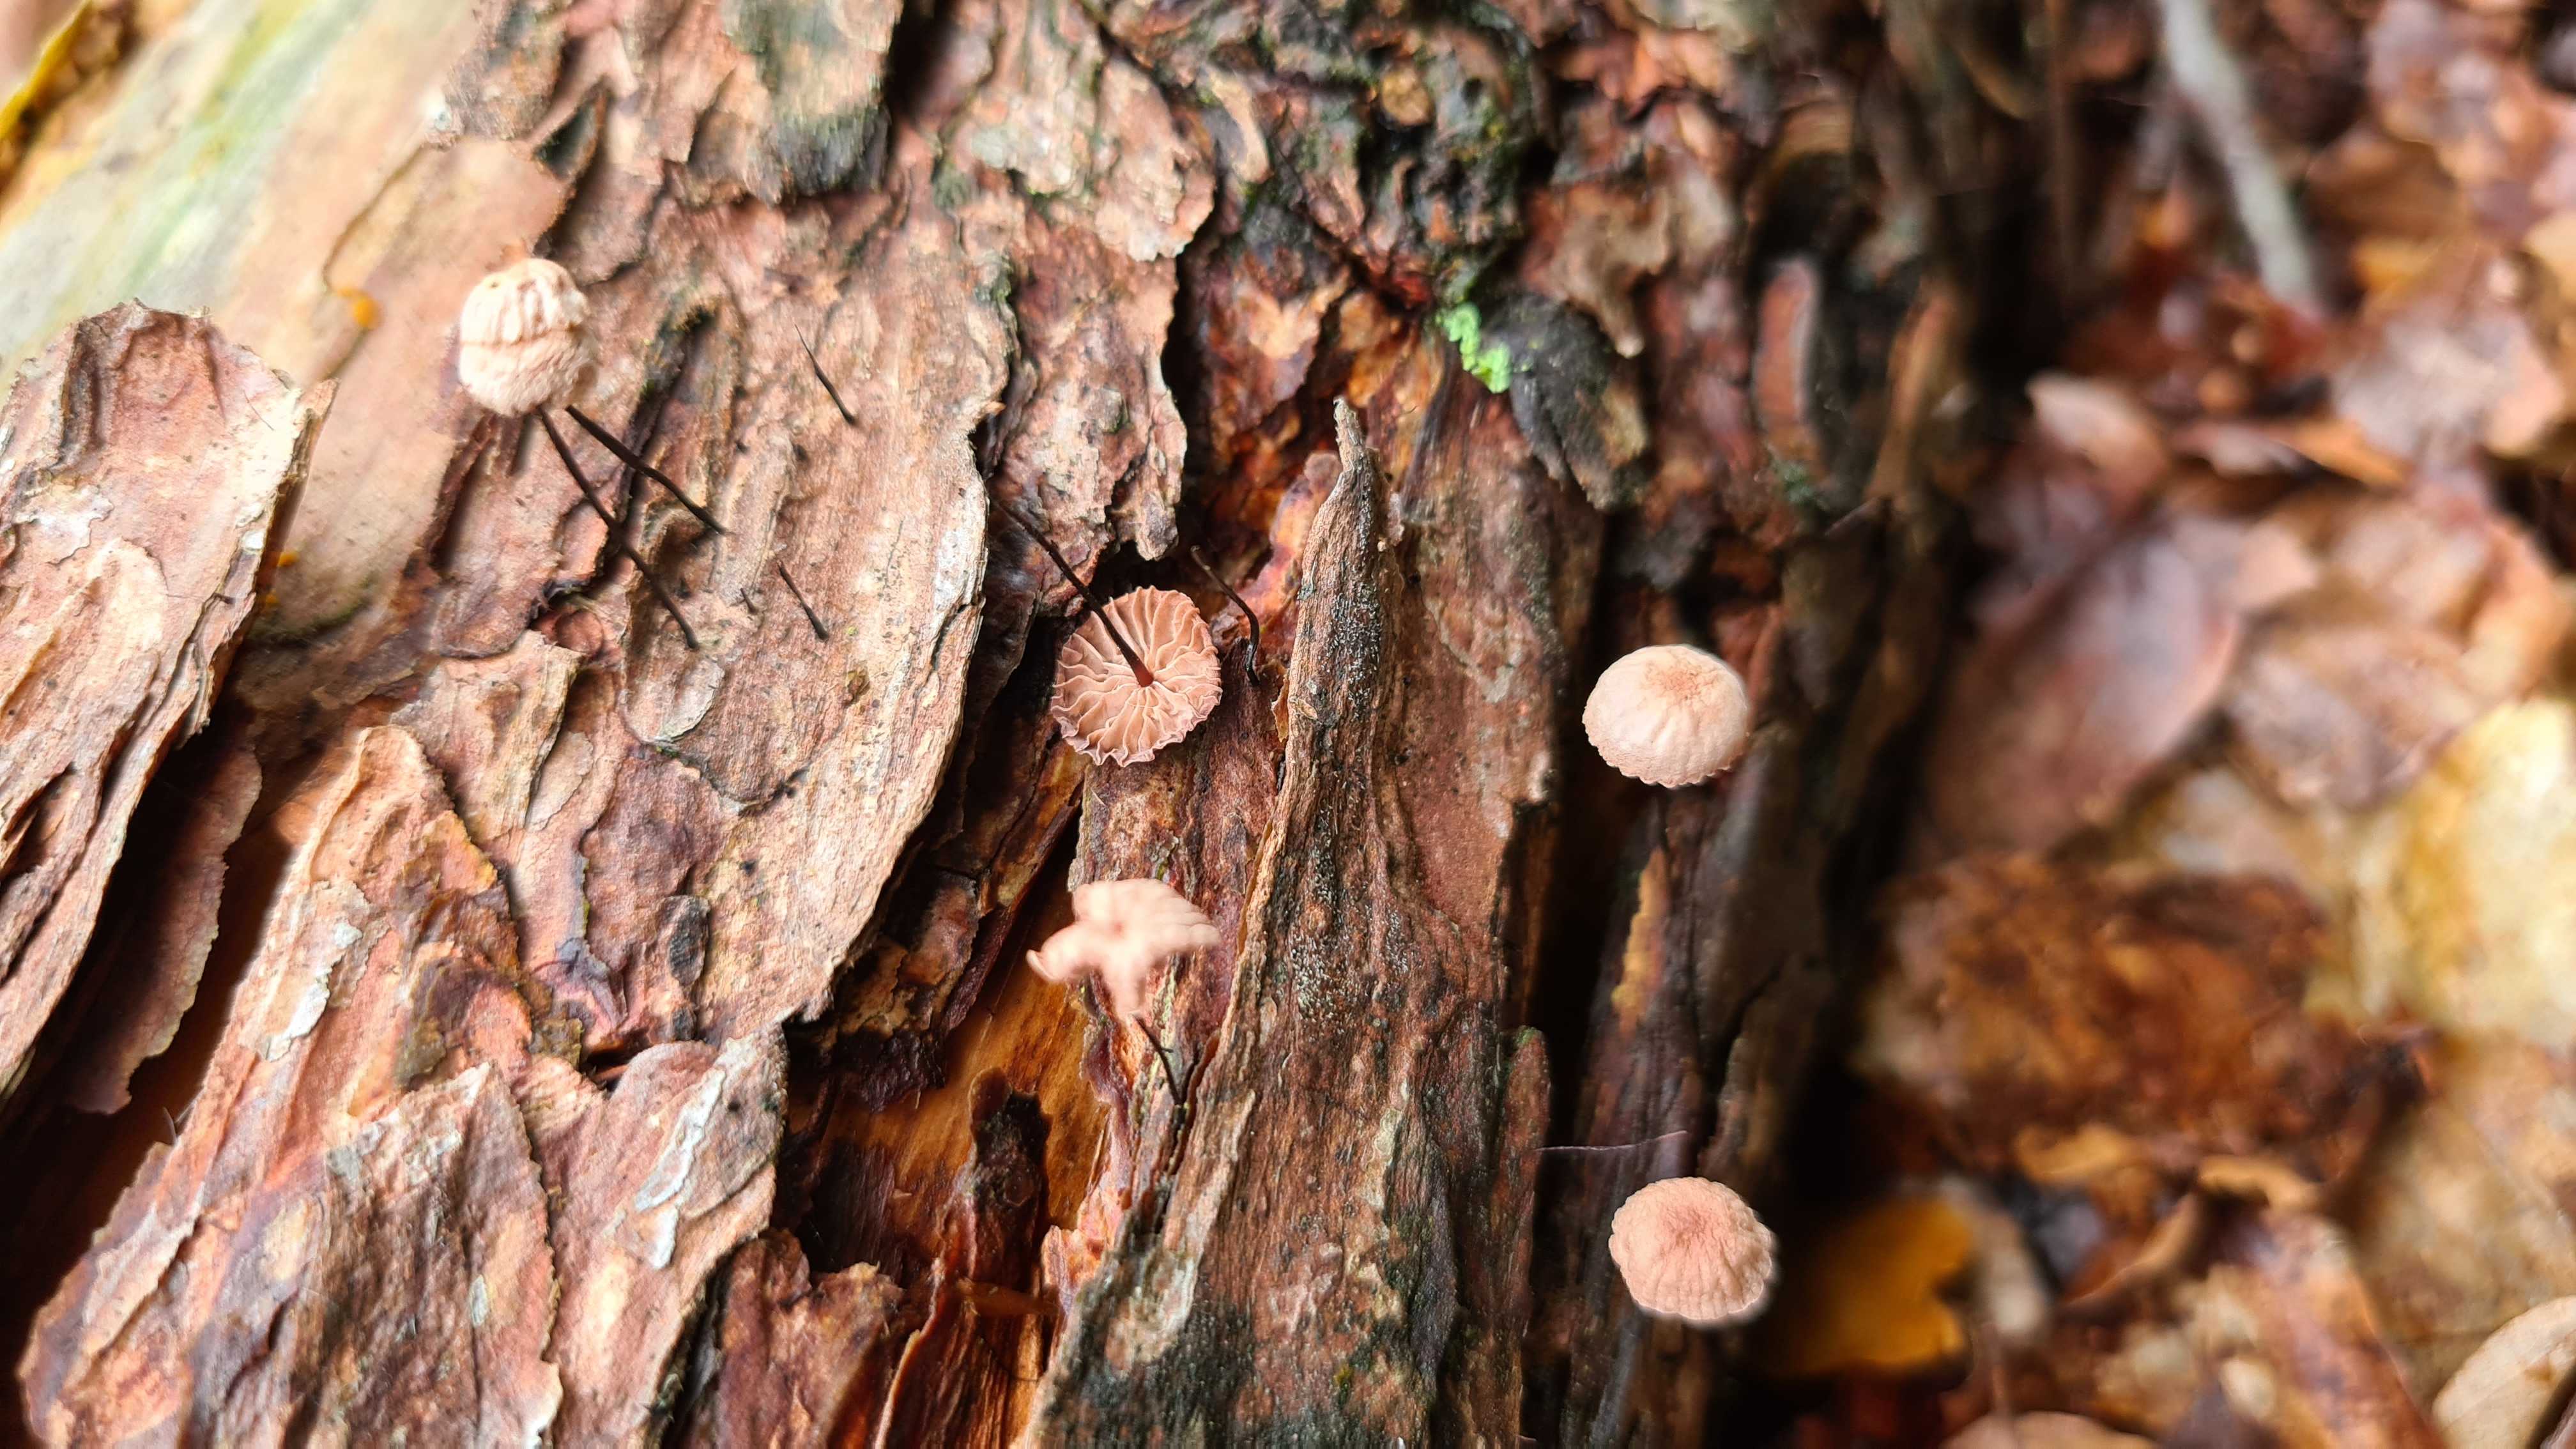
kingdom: Fungi
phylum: Basidiomycota
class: Agaricomycetes
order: Agaricales
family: Omphalotaceae
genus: Gymnopus
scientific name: Gymnopus androsaceus
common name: trådstokket fladhat
